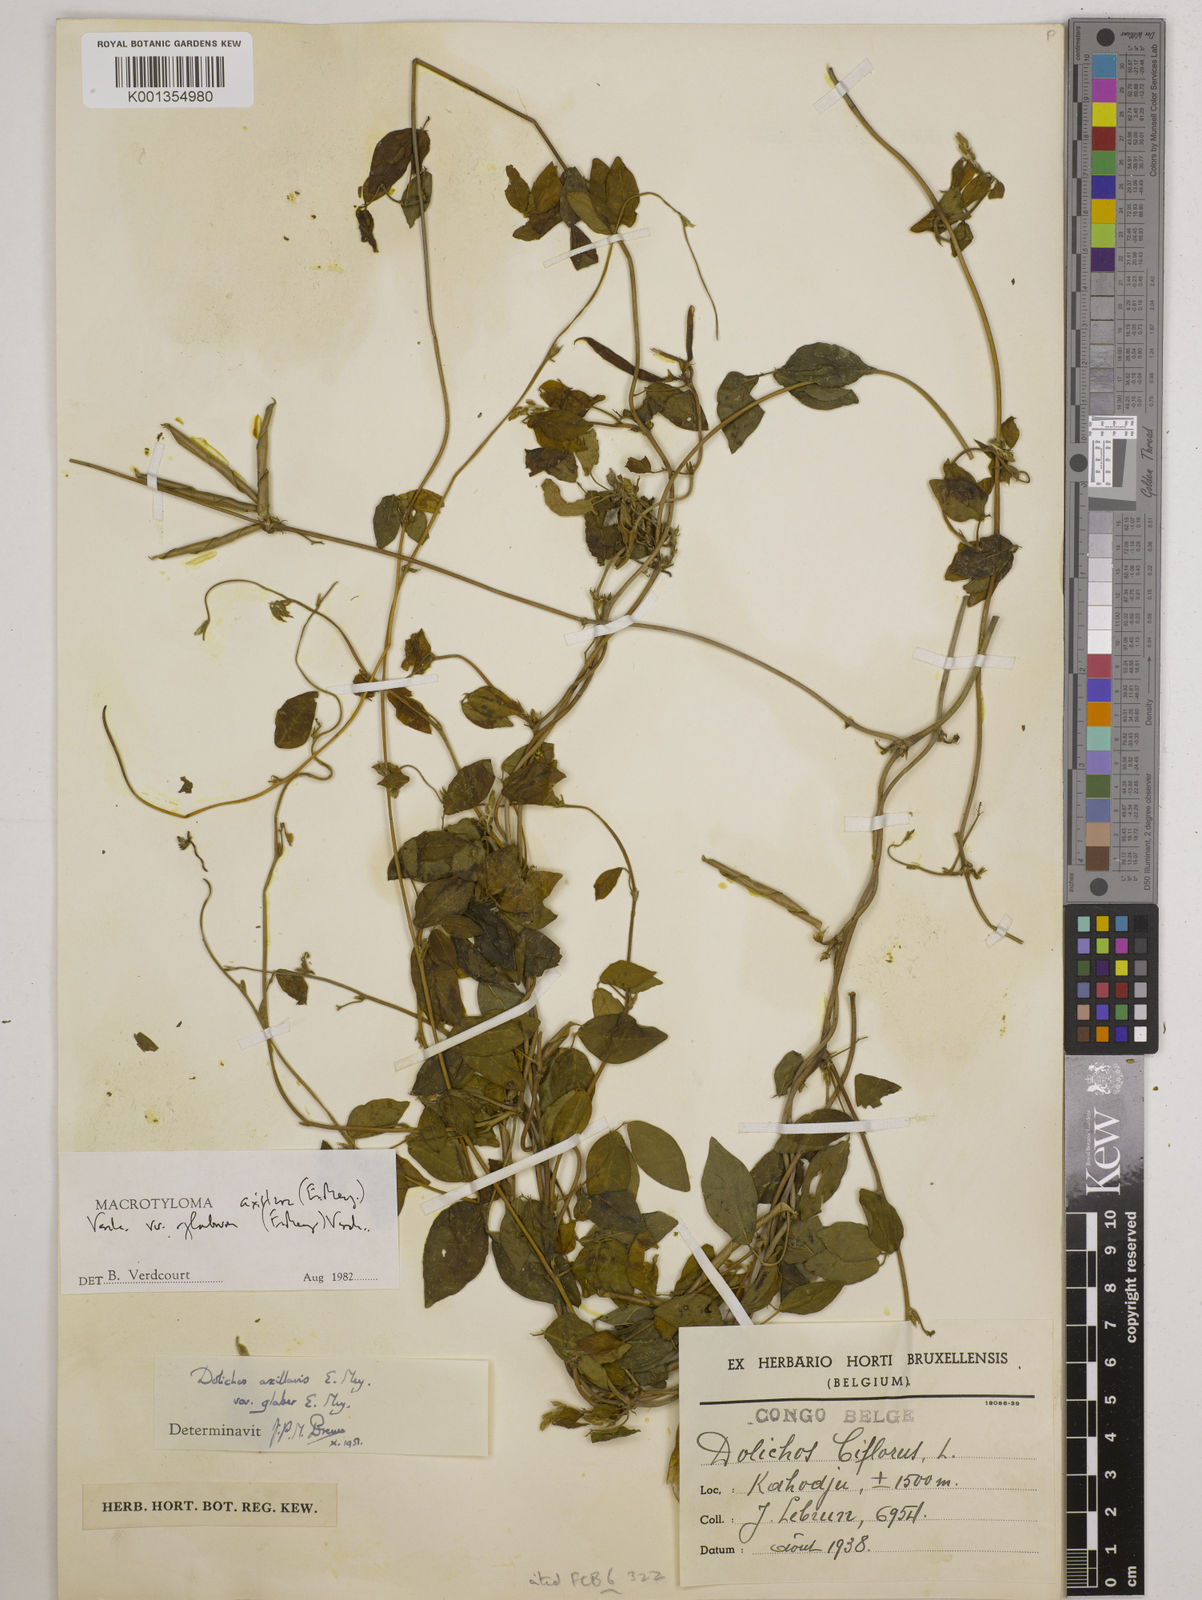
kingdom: Plantae
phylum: Tracheophyta
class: Magnoliopsida
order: Fabales
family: Fabaceae
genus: Macrotyloma
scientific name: Macrotyloma
